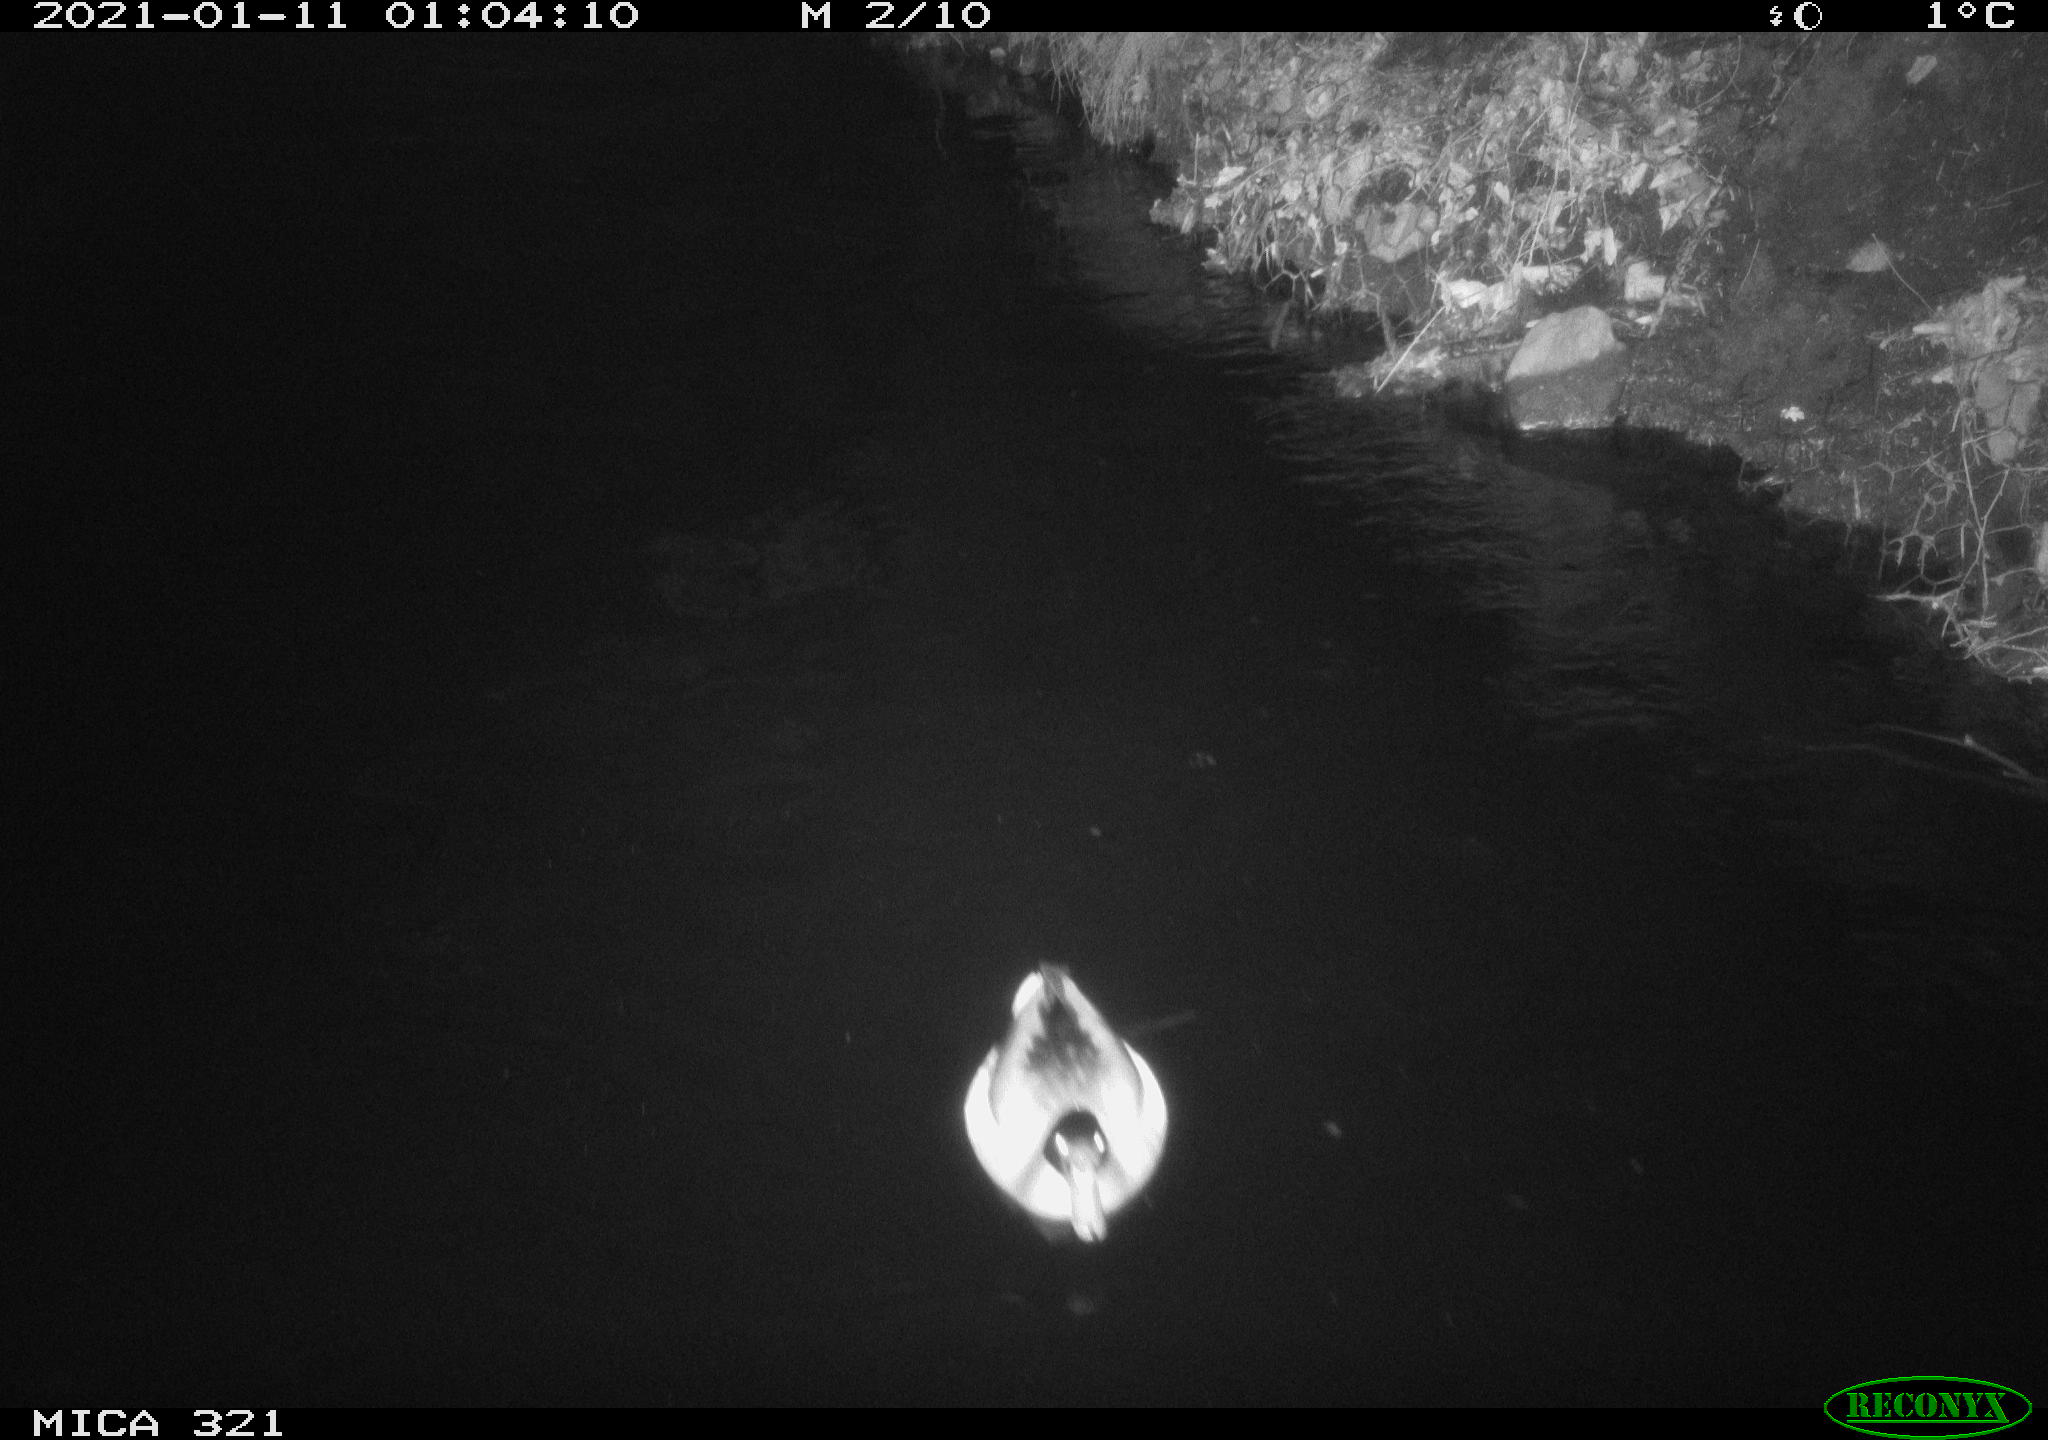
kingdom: Animalia
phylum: Chordata
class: Aves
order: Anseriformes
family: Anatidae
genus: Anas
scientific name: Anas platyrhynchos
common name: Mallard
